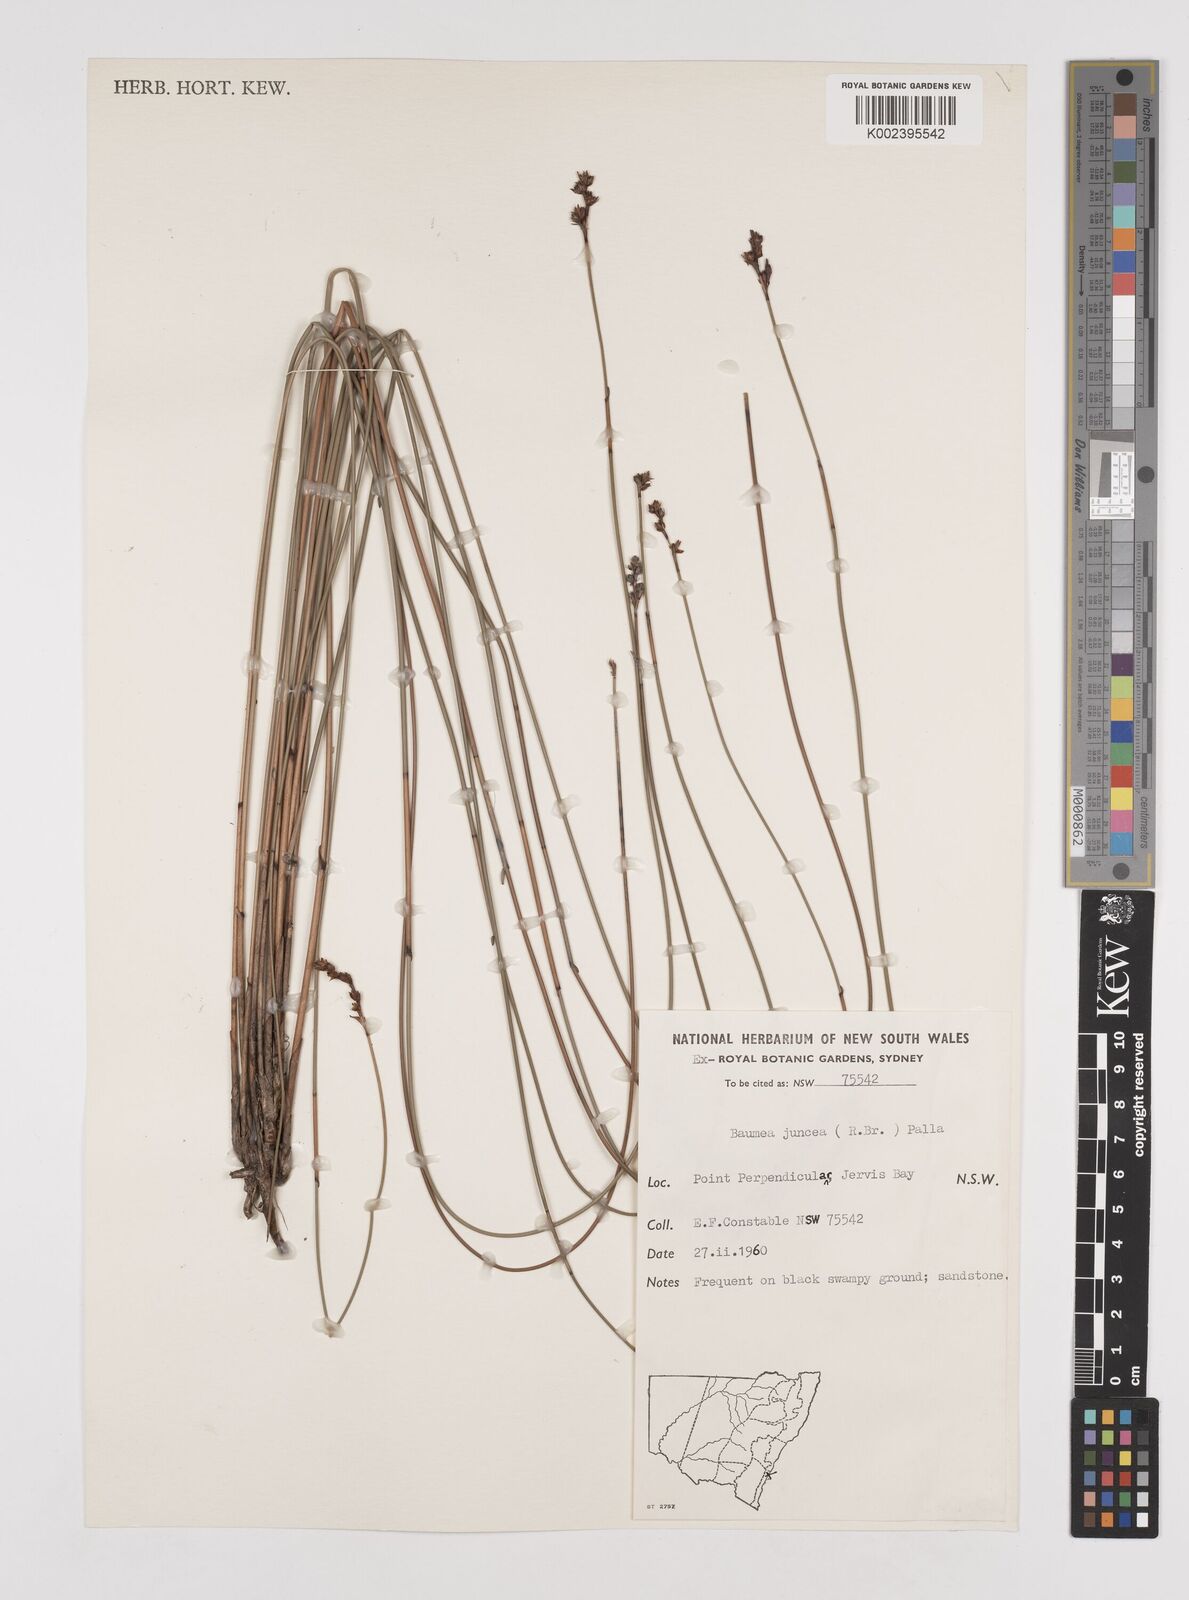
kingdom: Plantae
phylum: Tracheophyta
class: Liliopsida
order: Poales
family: Cyperaceae
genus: Machaerina
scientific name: Machaerina juncea
